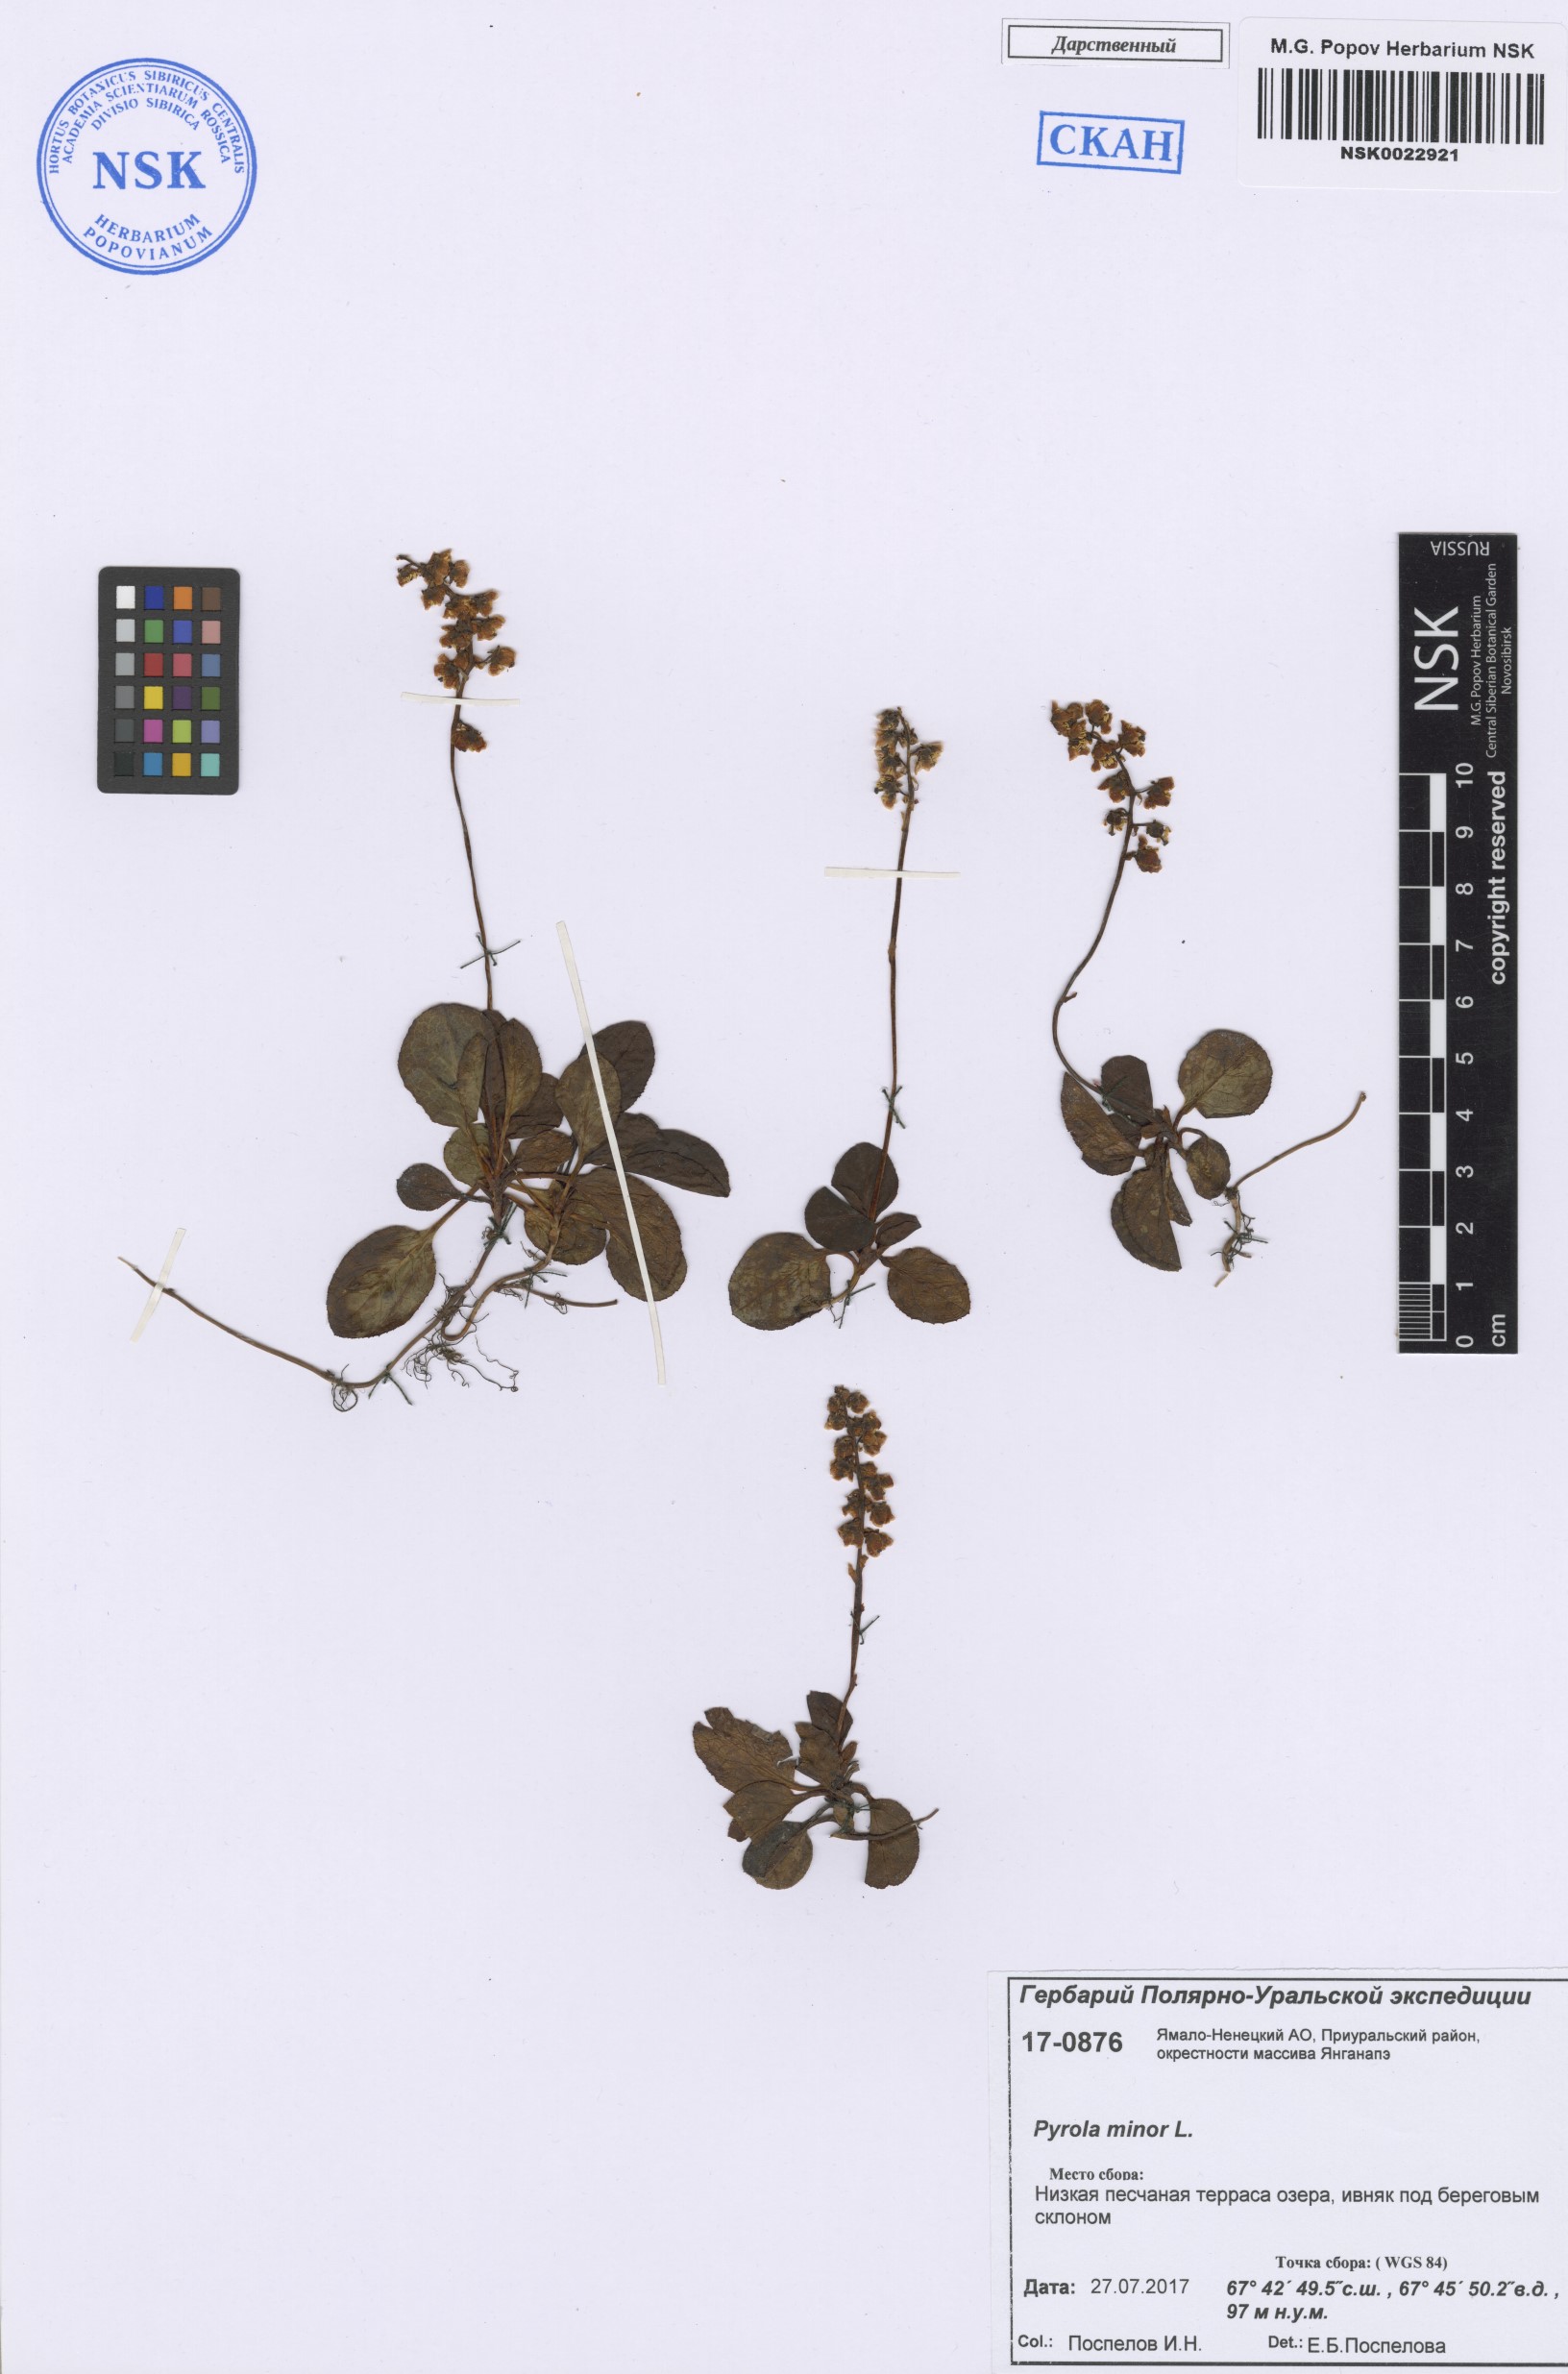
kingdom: Plantae
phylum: Tracheophyta
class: Magnoliopsida
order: Ericales
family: Ericaceae
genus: Pyrola
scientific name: Pyrola minor
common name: Common wintergreen
